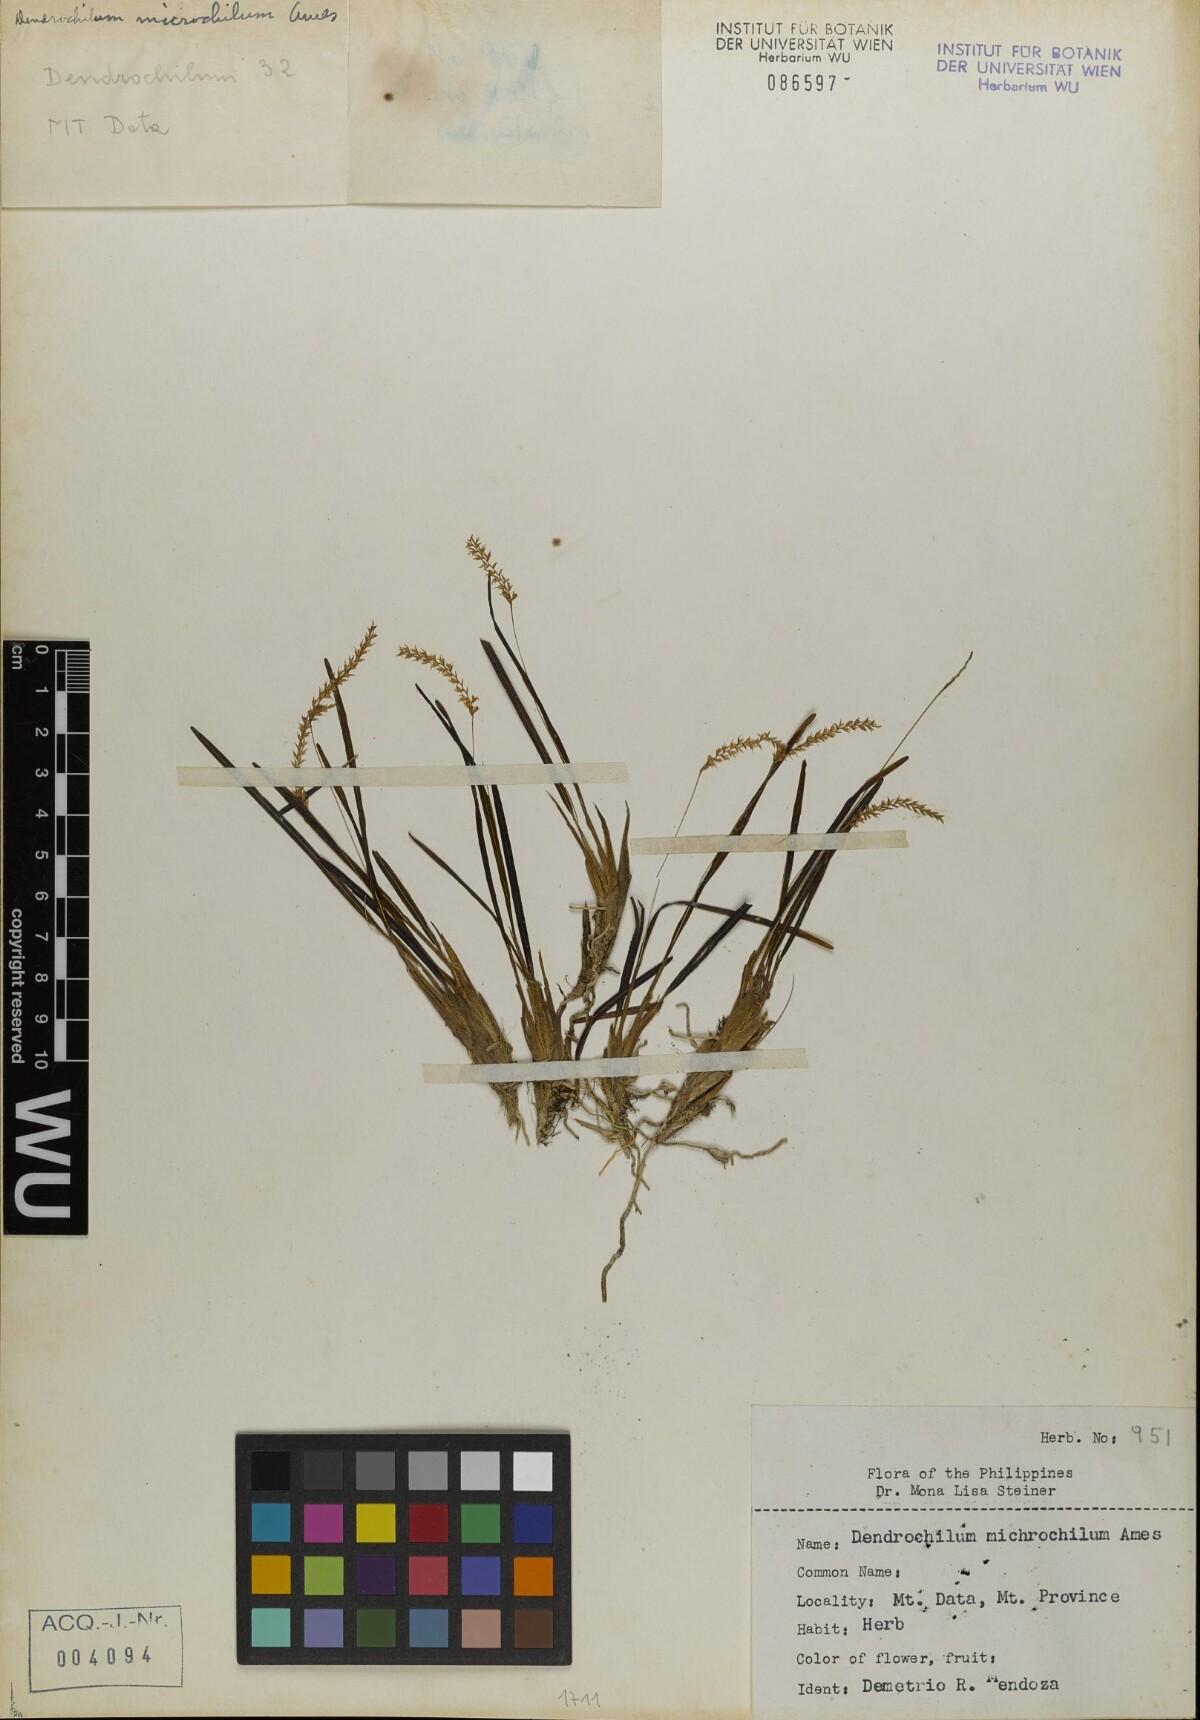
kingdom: Plantae
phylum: Tracheophyta
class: Liliopsida
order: Asparagales
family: Orchidaceae
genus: Coelogyne
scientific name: Coelogyne microchila
